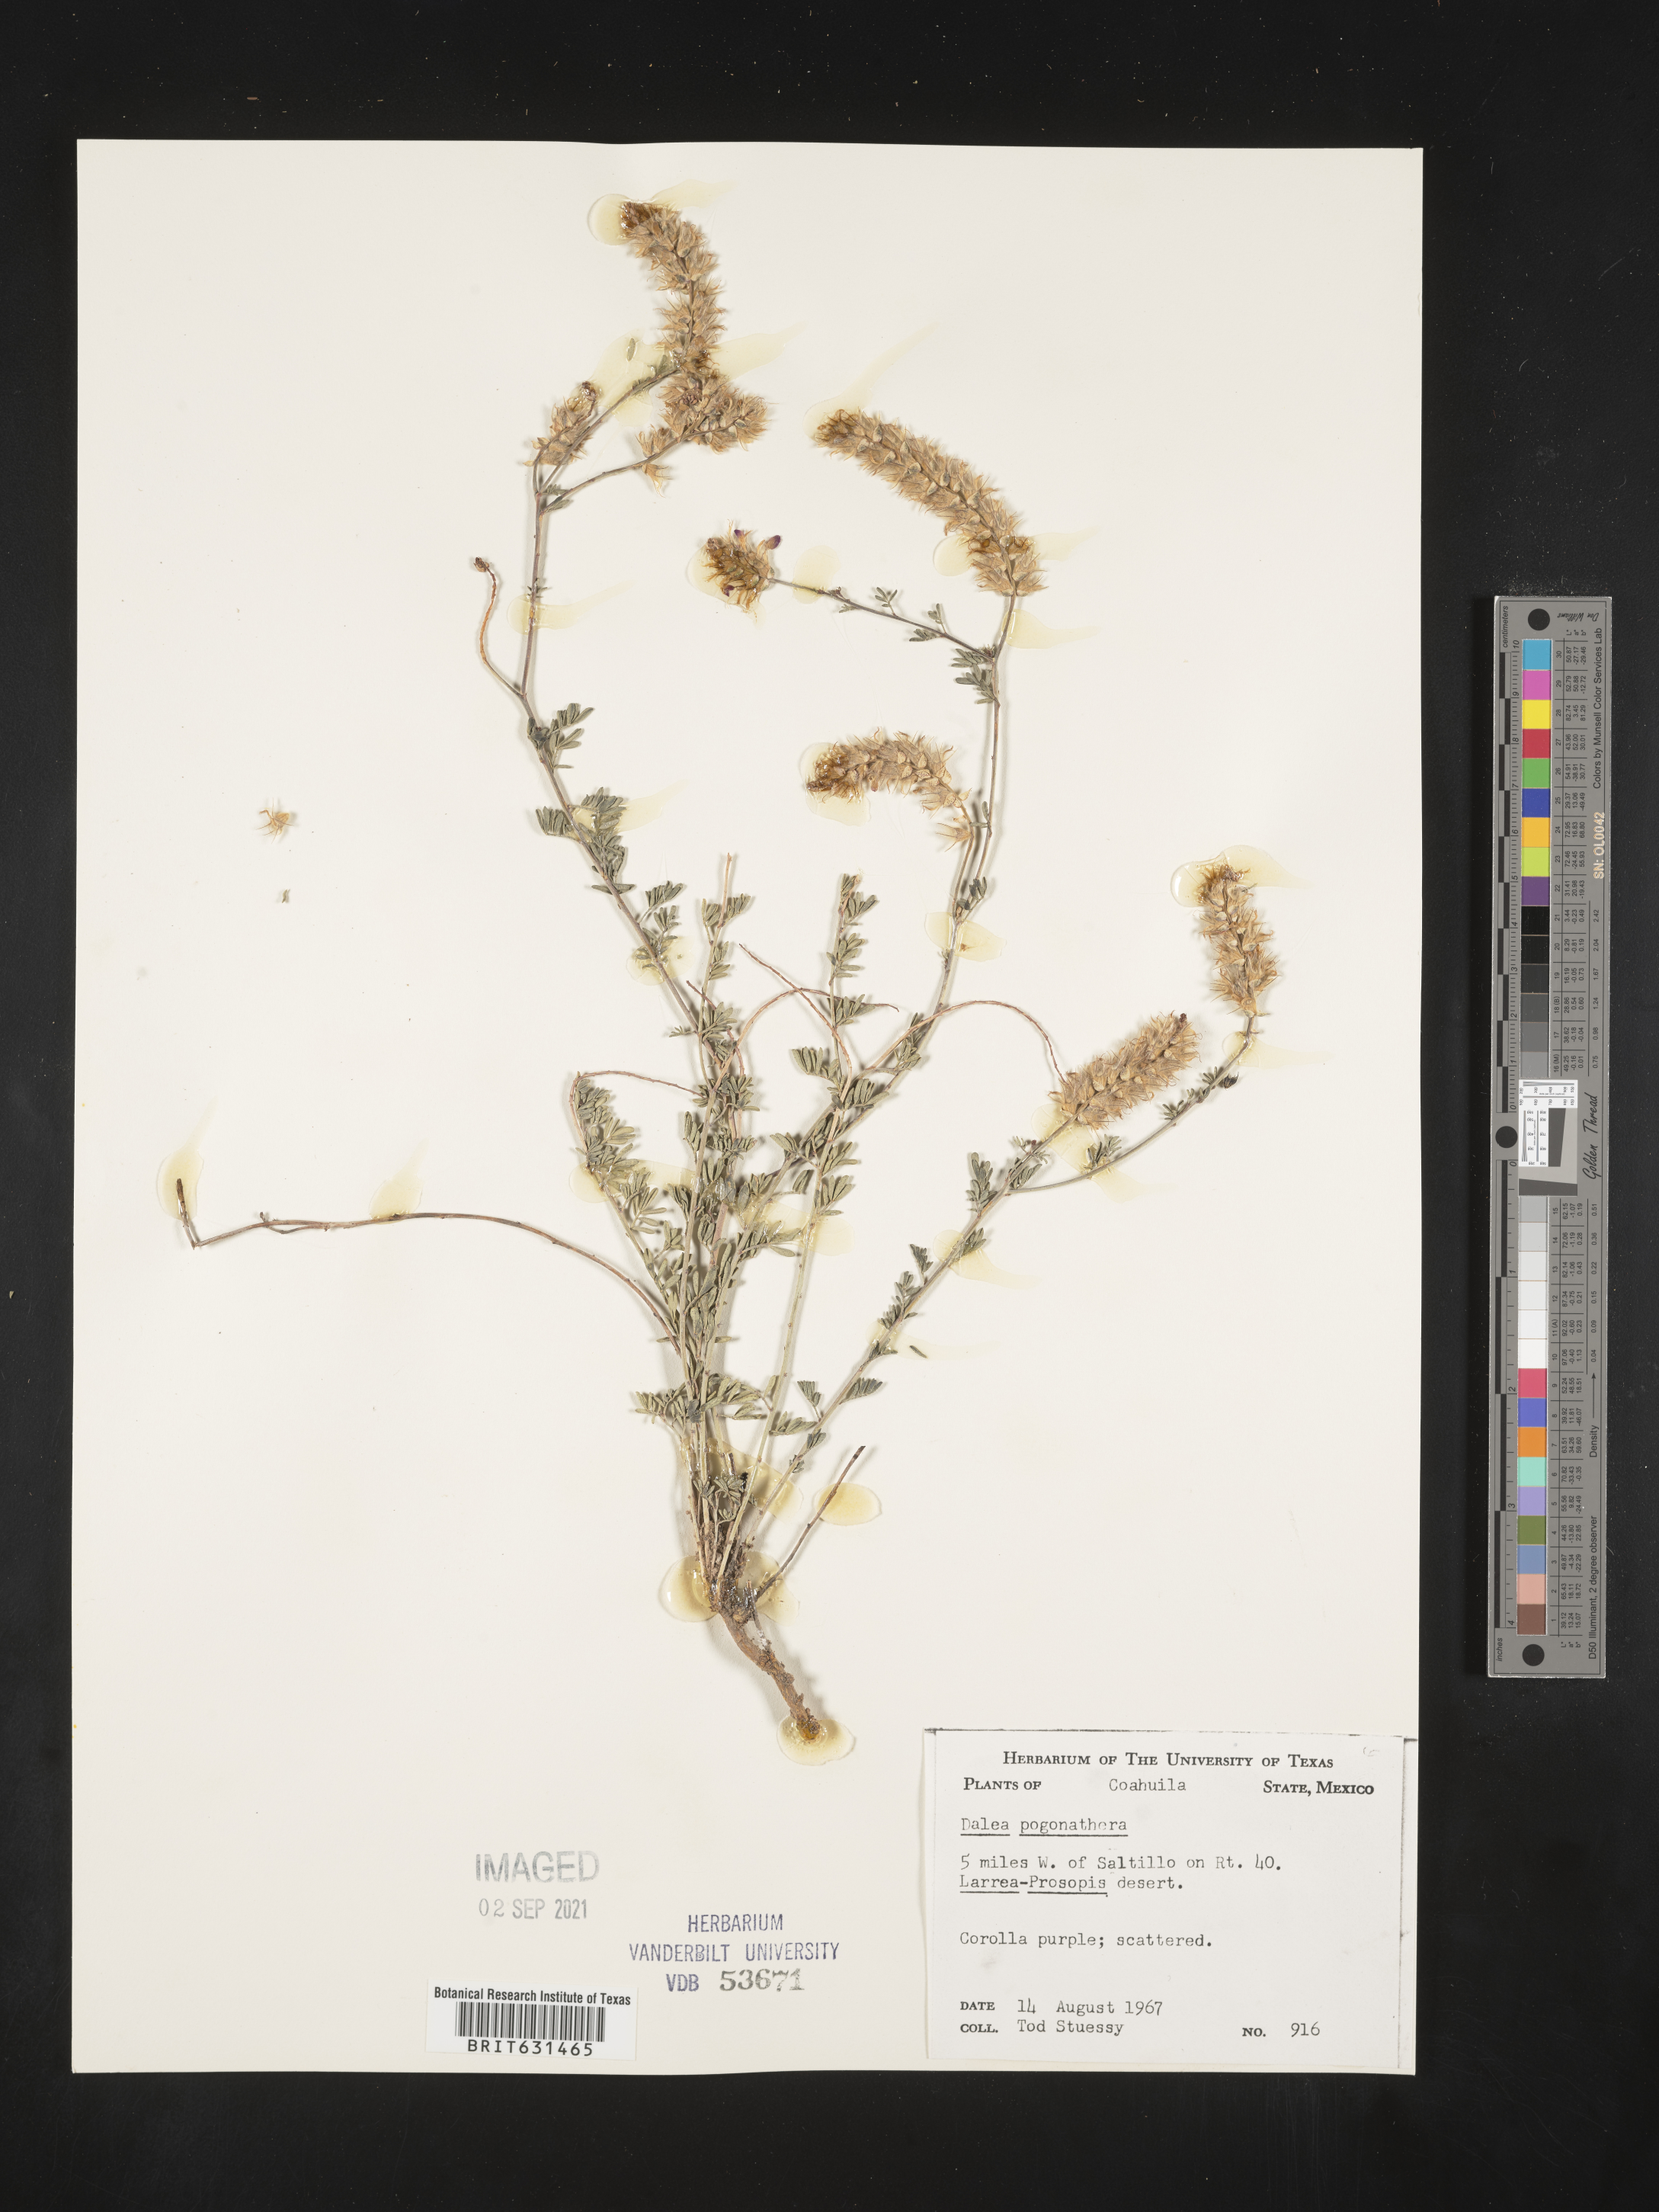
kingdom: Plantae
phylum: Tracheophyta
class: Magnoliopsida
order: Fabales
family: Fabaceae
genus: Dalea
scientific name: Dalea pogonathera
